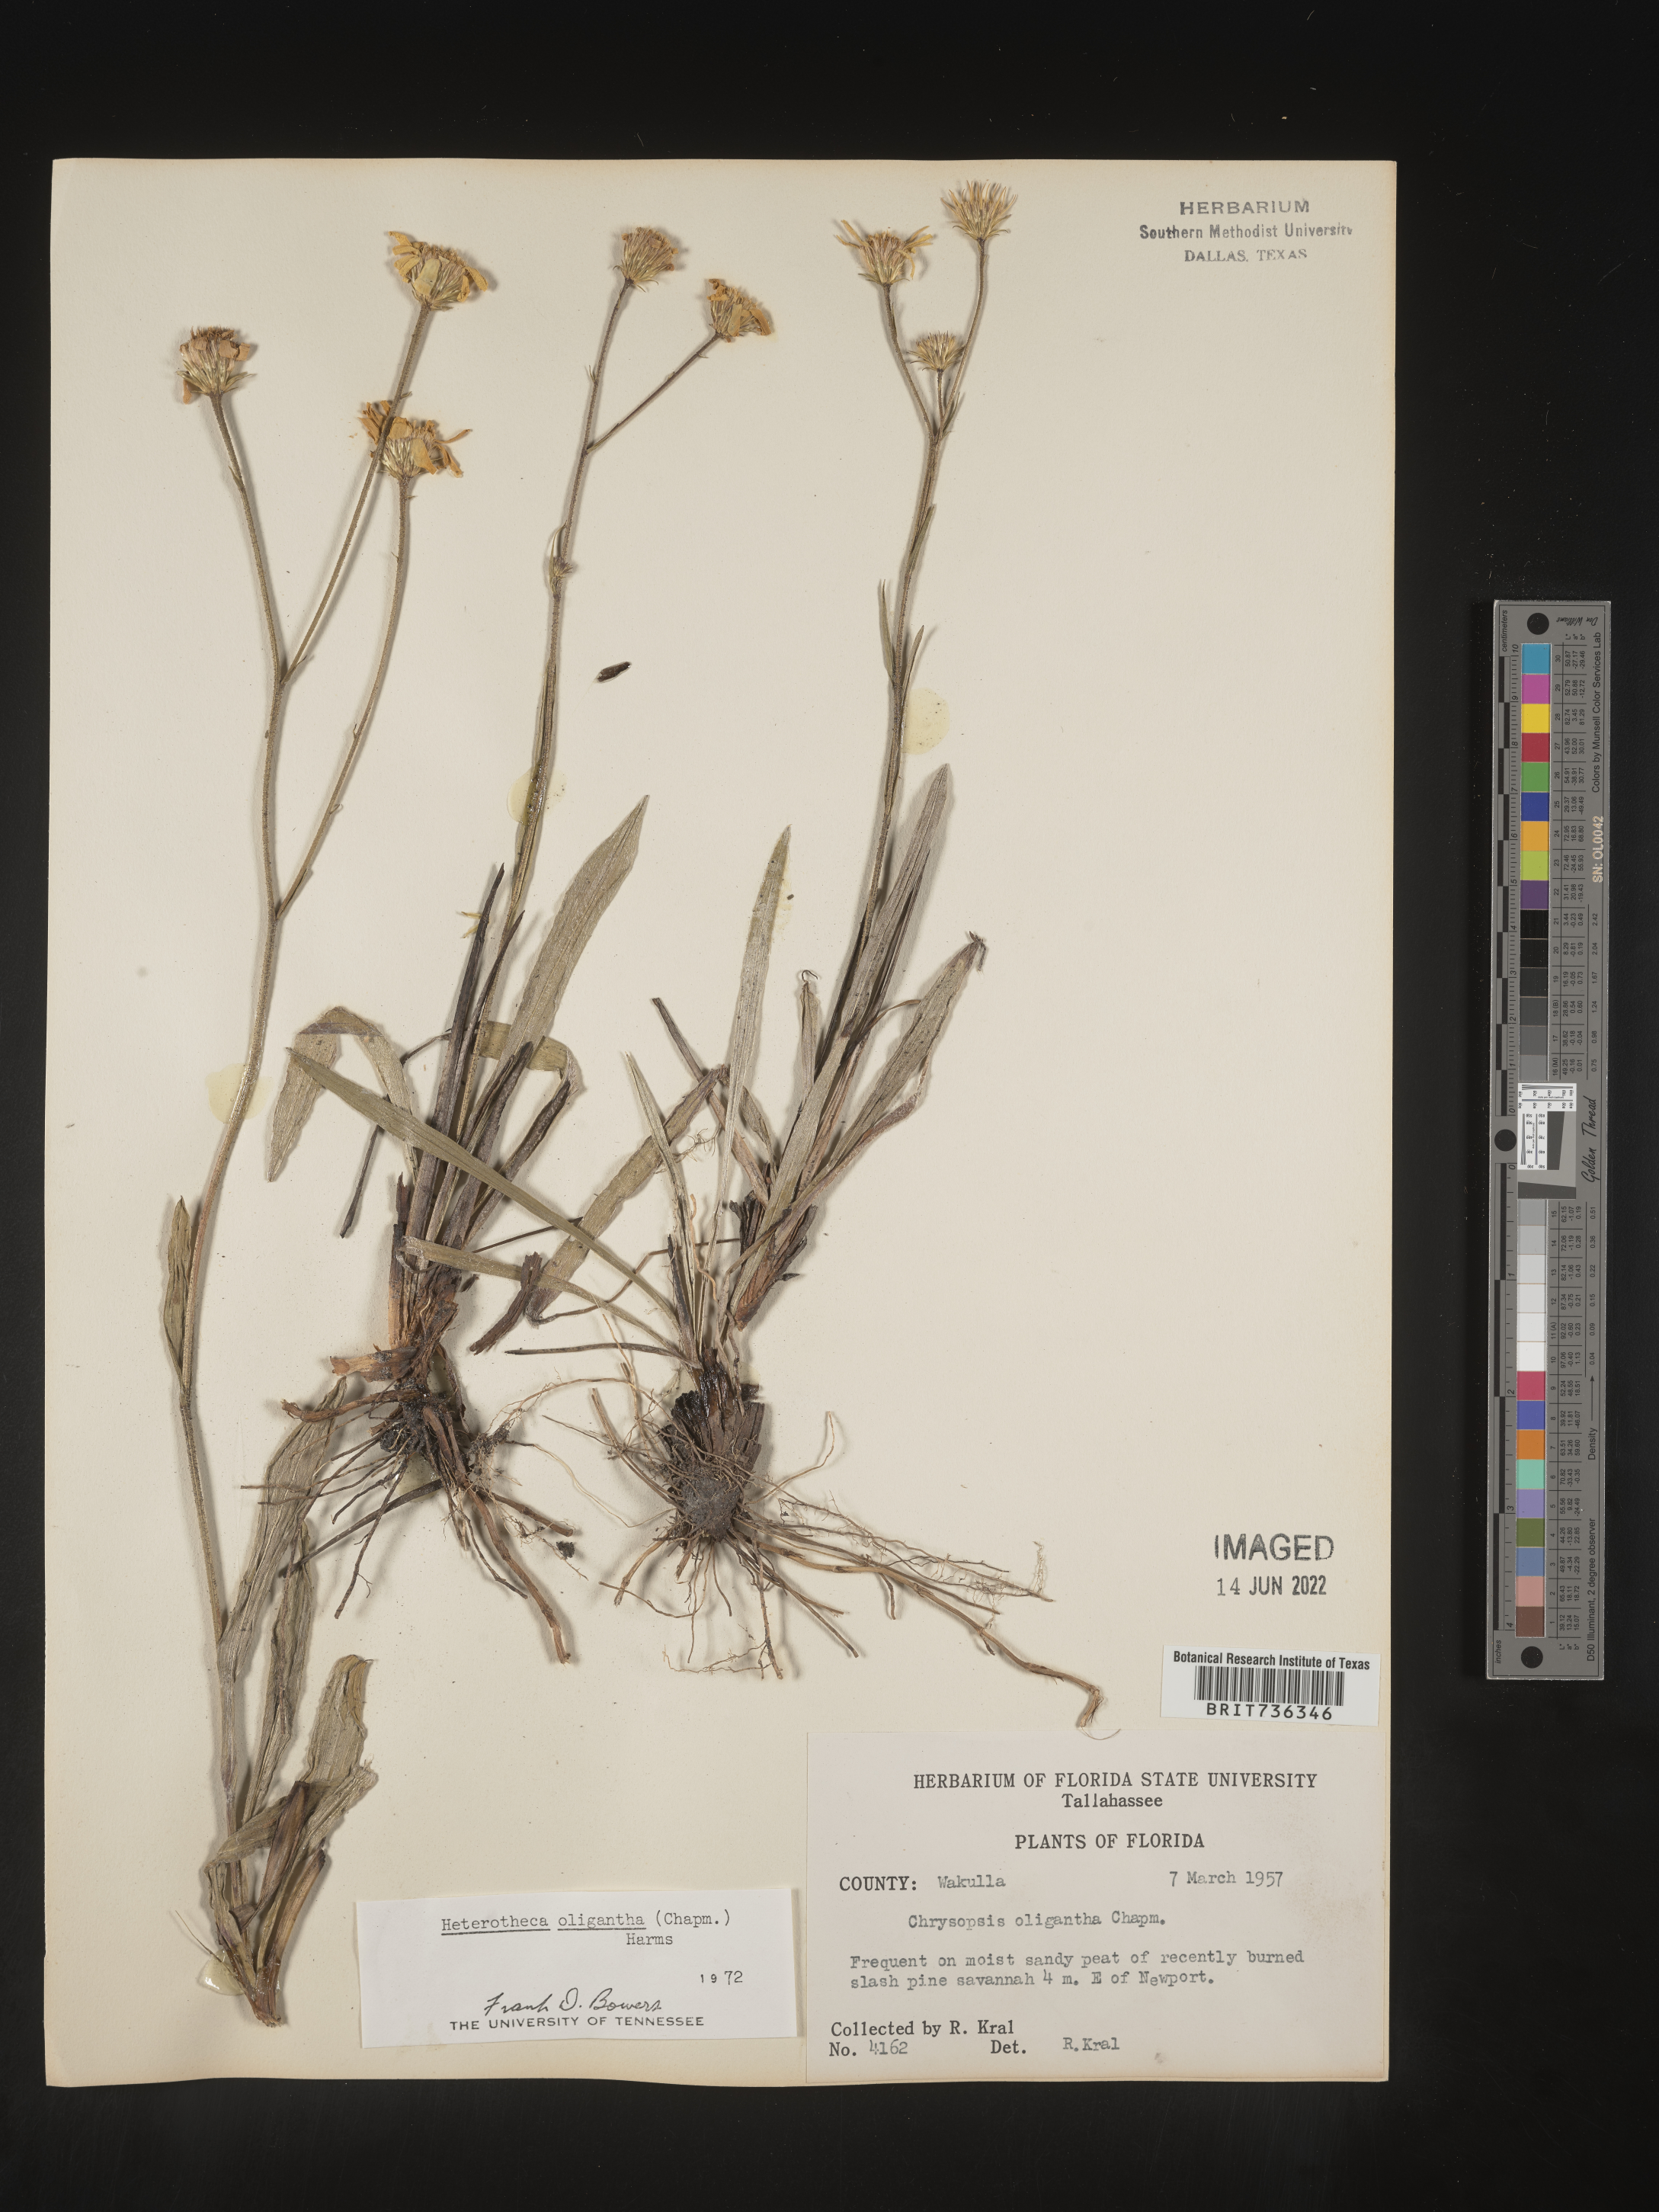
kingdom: Plantae
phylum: Tracheophyta
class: Magnoliopsida
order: Asterales
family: Asteraceae
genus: Pityopsis
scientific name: Pityopsis oligantha
